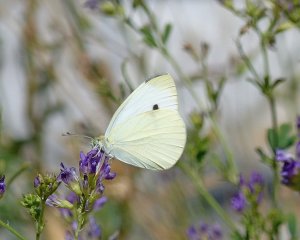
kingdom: Animalia
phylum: Arthropoda
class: Insecta
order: Lepidoptera
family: Pieridae
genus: Pieris
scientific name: Pieris rapae
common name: Cabbage White
